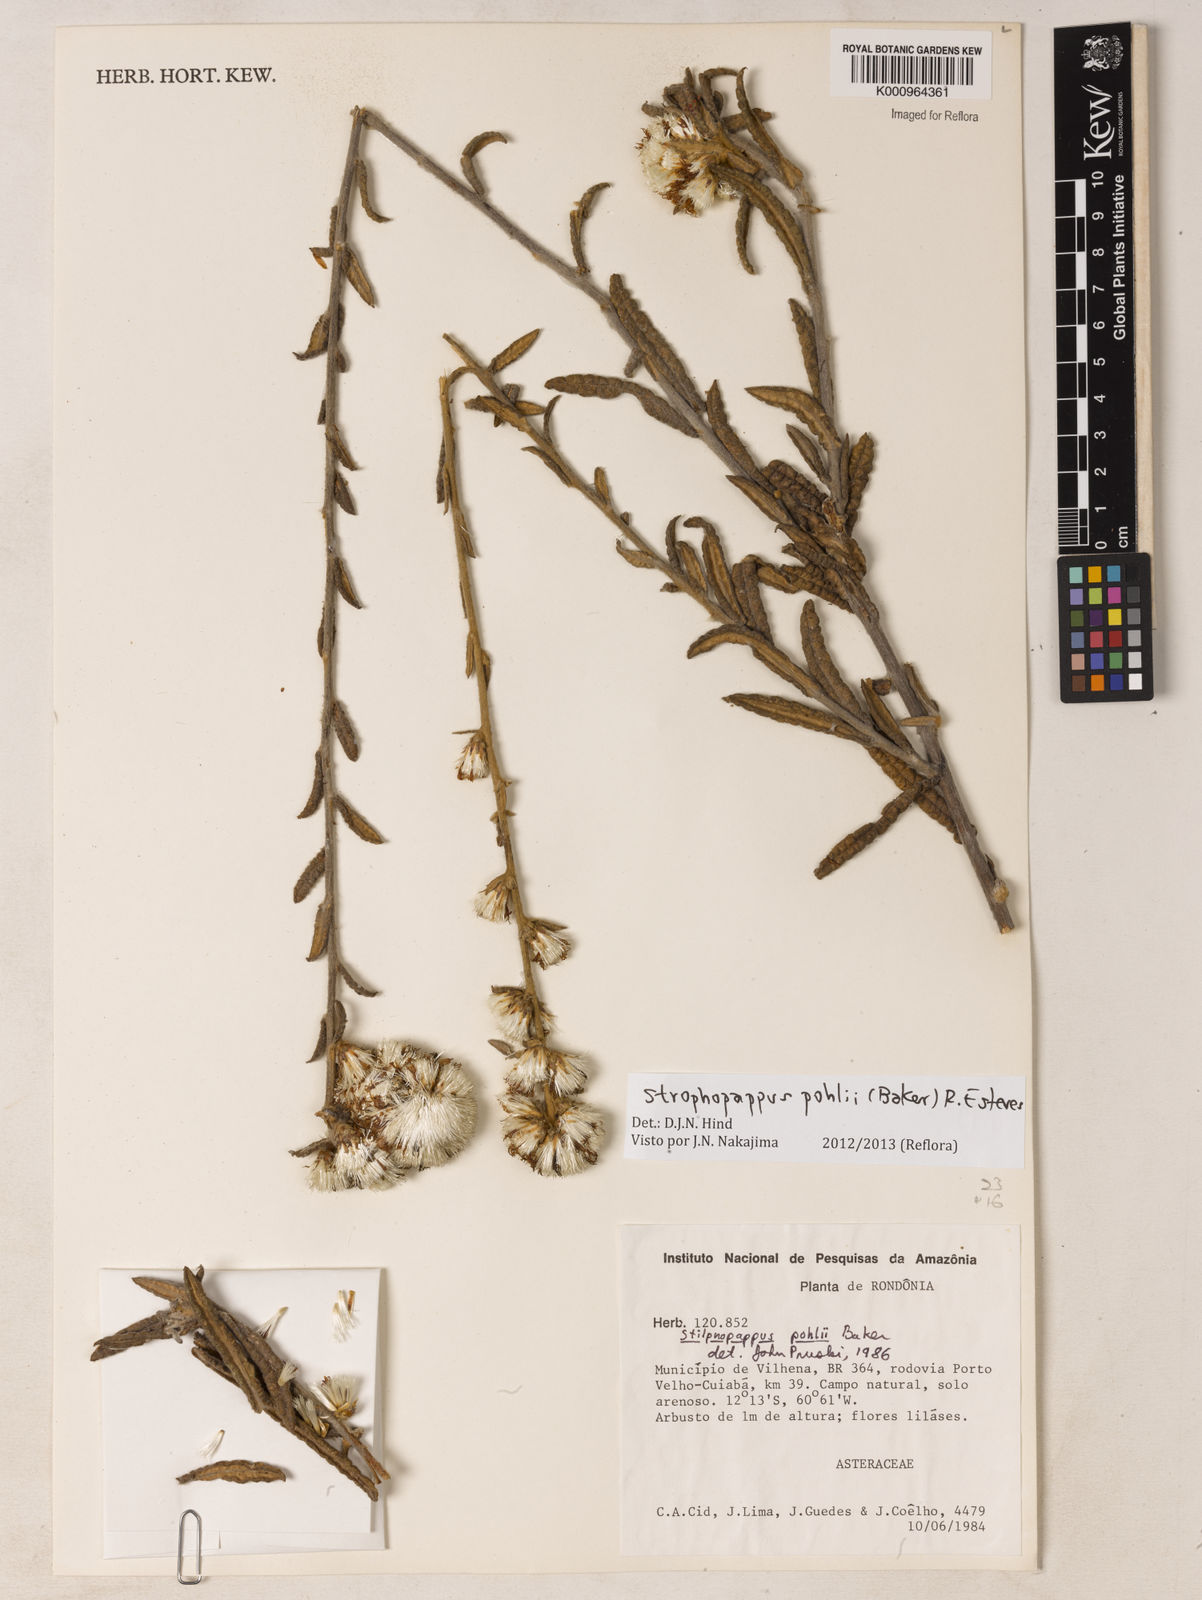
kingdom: Plantae
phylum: Tracheophyta
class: Magnoliopsida
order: Asterales
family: Asteraceae
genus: Stilpnopappus
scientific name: Stilpnopappus pohlii
